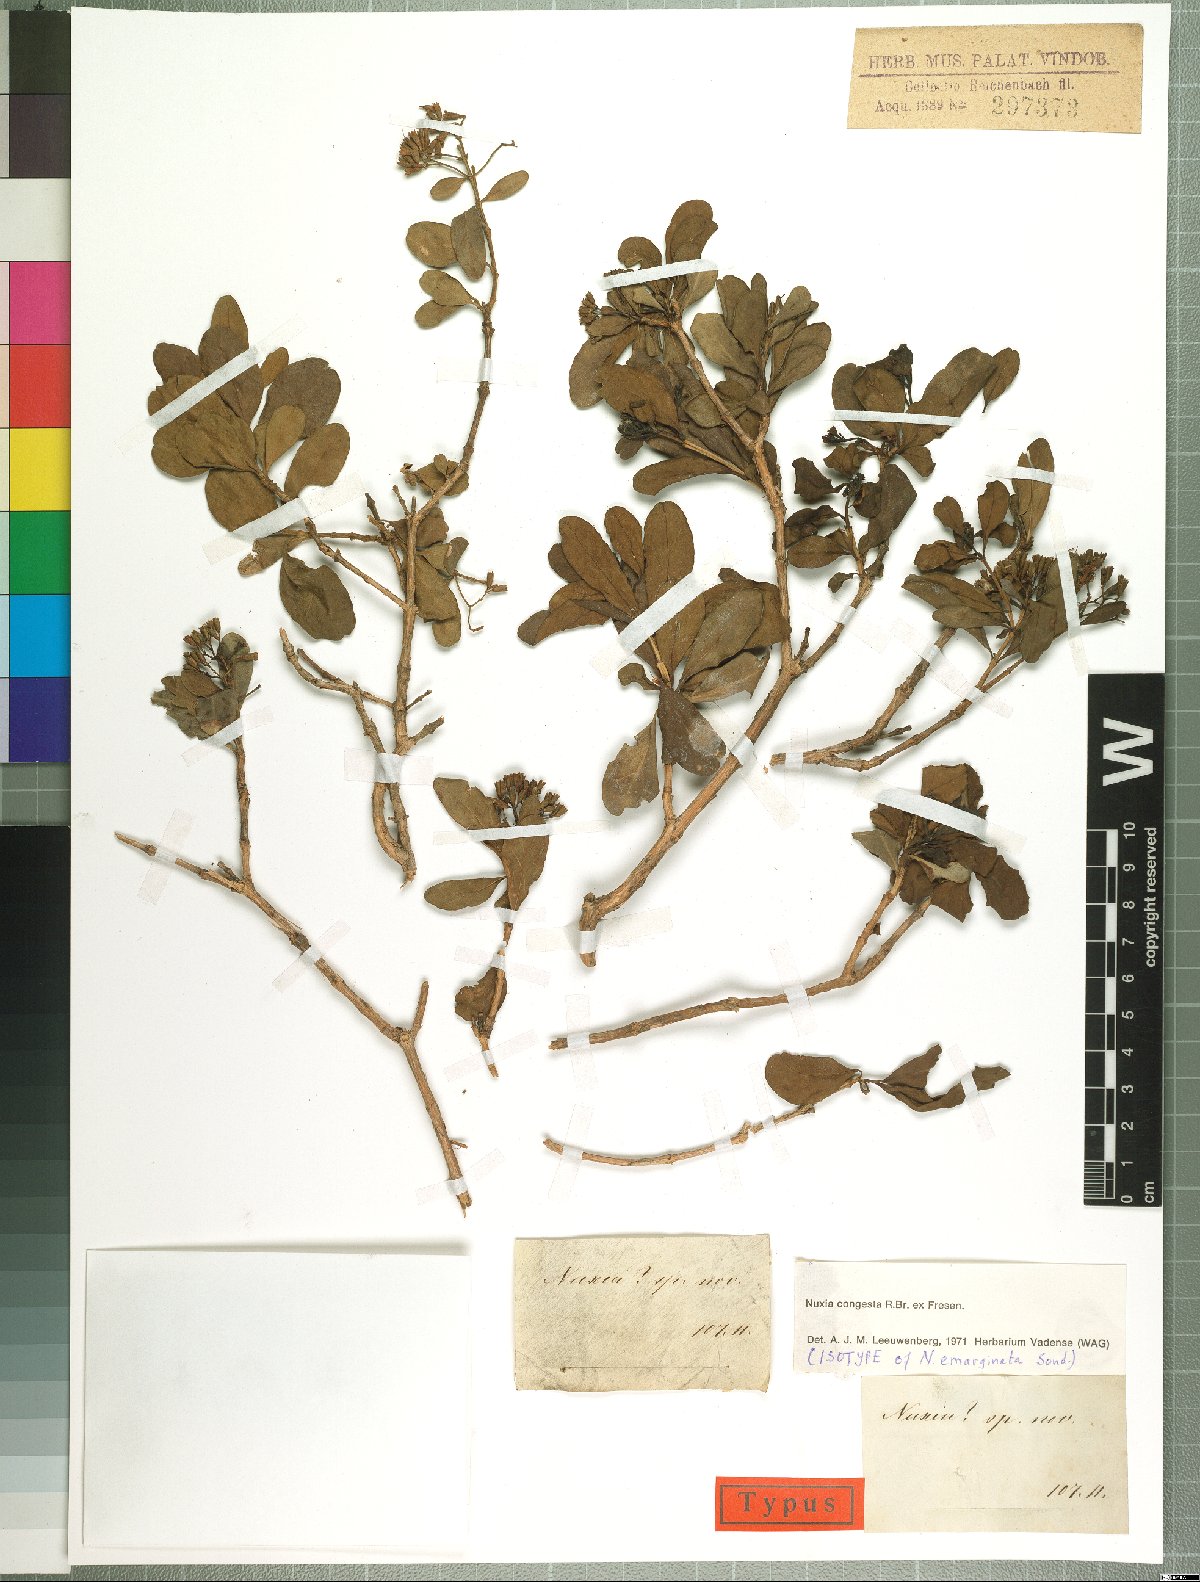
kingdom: Plantae
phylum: Tracheophyta
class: Magnoliopsida
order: Lamiales
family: Stilbaceae
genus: Nuxia
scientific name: Nuxia congesta
